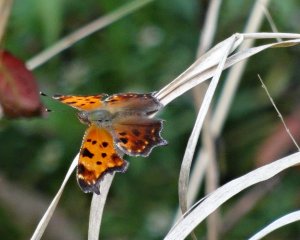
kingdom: Animalia
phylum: Arthropoda
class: Insecta
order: Lepidoptera
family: Nymphalidae
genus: Polygonia
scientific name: Polygonia progne
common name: Gray Comma
